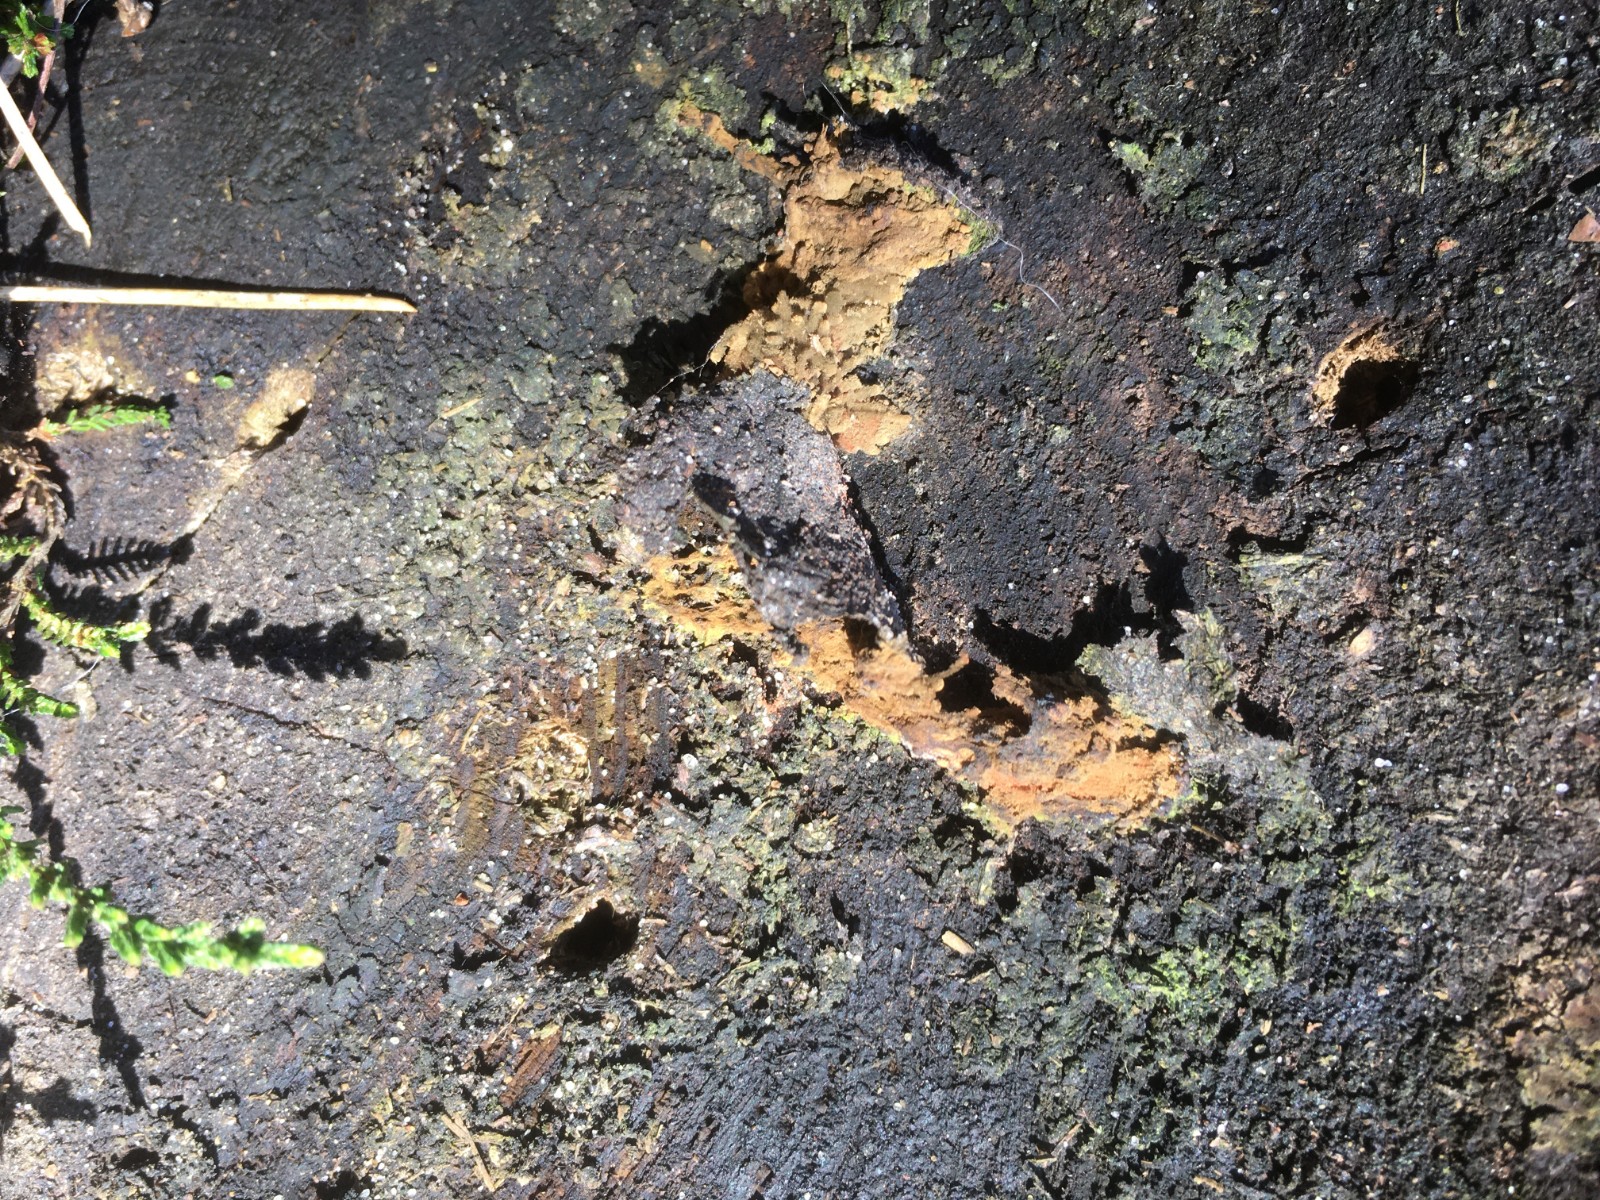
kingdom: Protozoa
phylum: Mycetozoa
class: Myxomycetes
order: Trichiales
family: Arcyriaceae
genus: Arcyria
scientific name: Arcyria affinis
